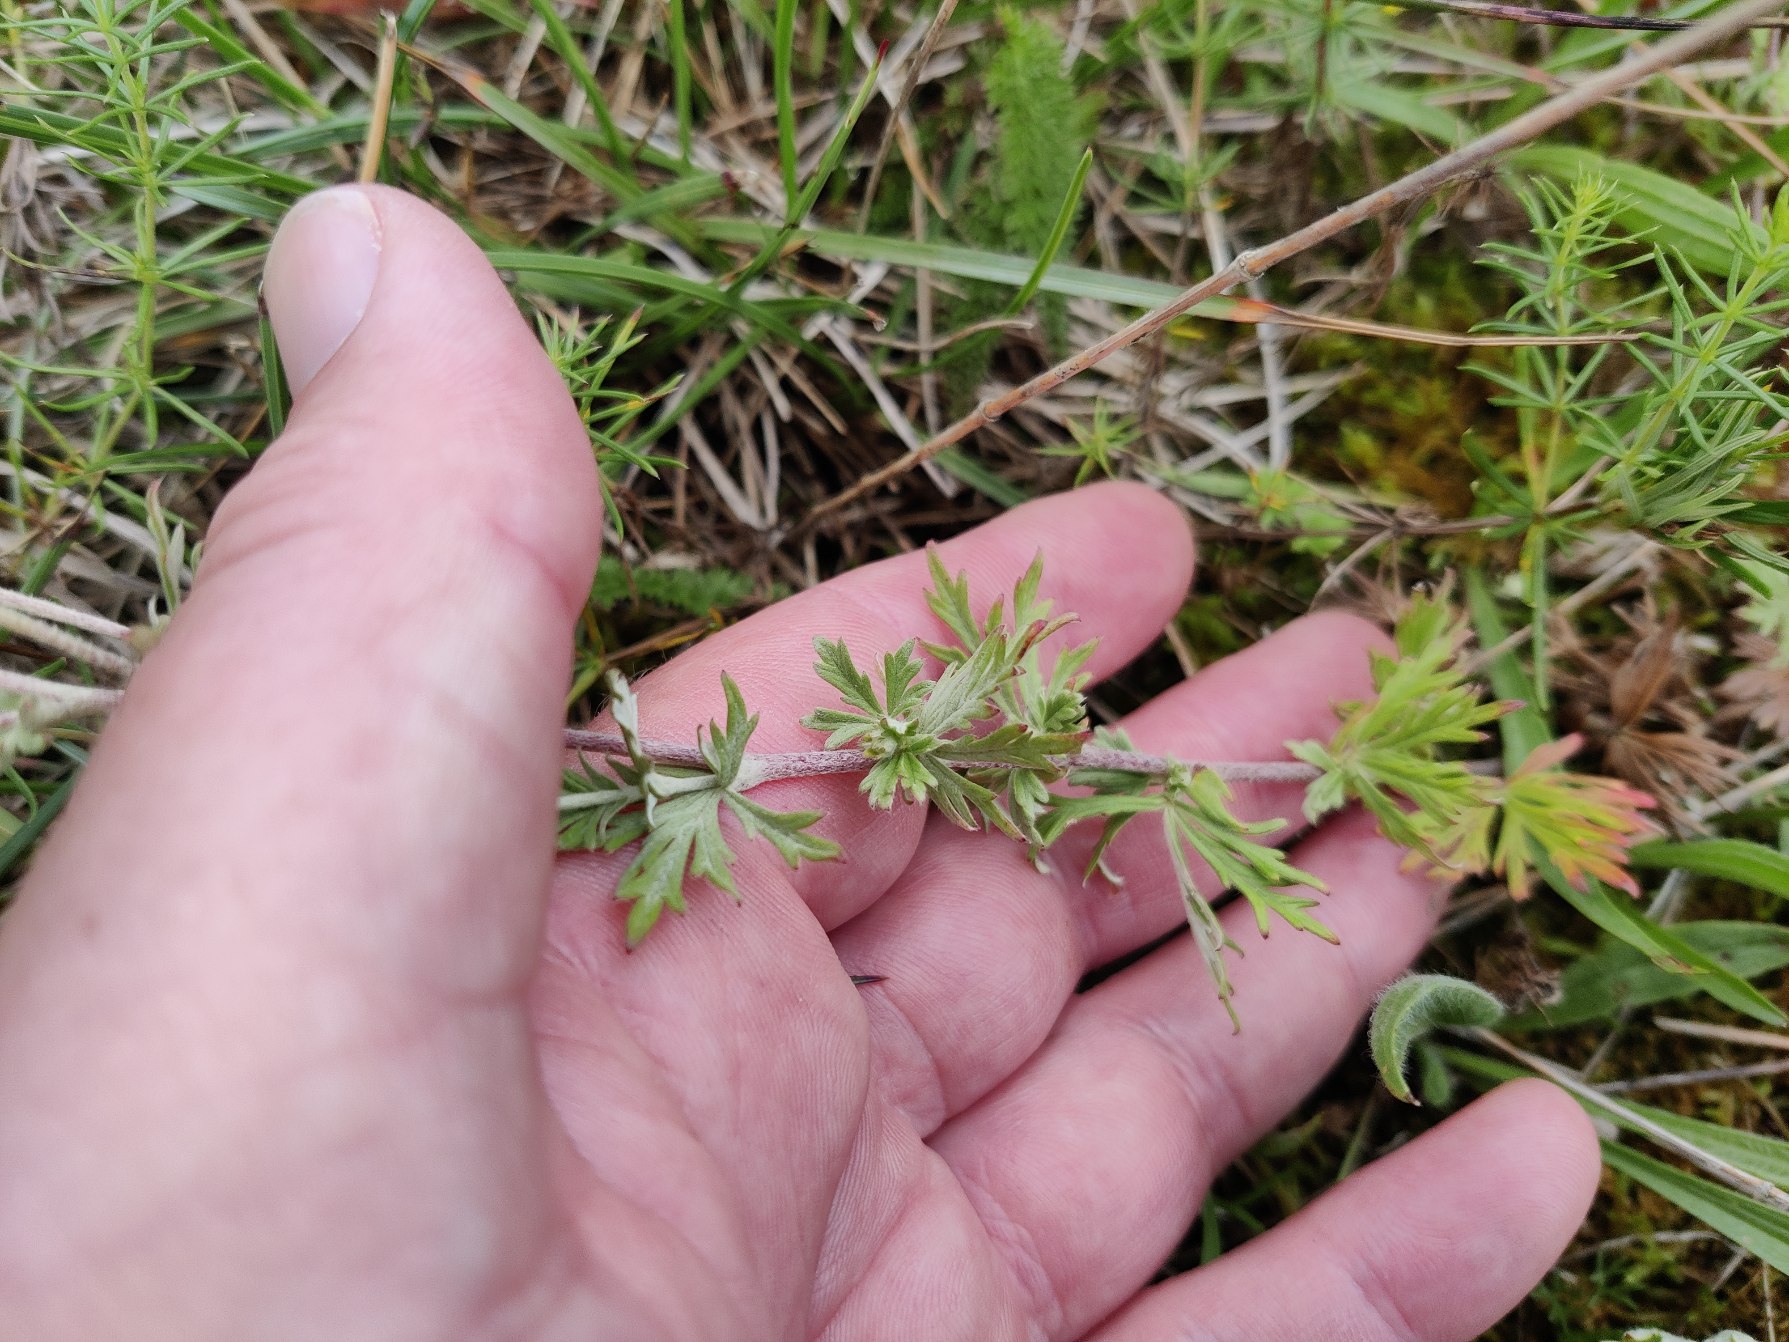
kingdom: Plantae
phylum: Tracheophyta
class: Magnoliopsida
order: Rosales
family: Rosaceae
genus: Potentilla
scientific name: Potentilla argentea
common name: Sølv-potentil
